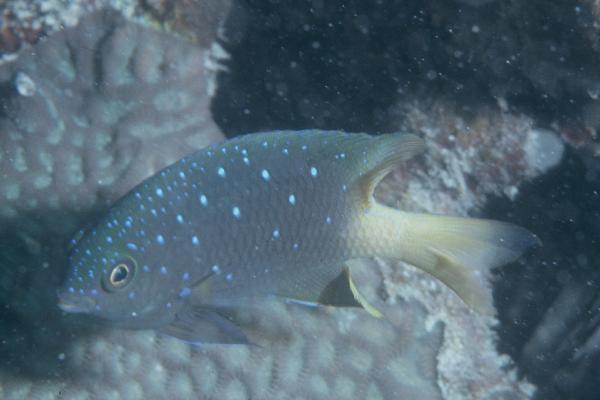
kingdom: Animalia
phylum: Chordata
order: Perciformes
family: Pomacentridae
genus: Plectroglyphidodon
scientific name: Plectroglyphidodon lacrymatus
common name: Jewel damsel
